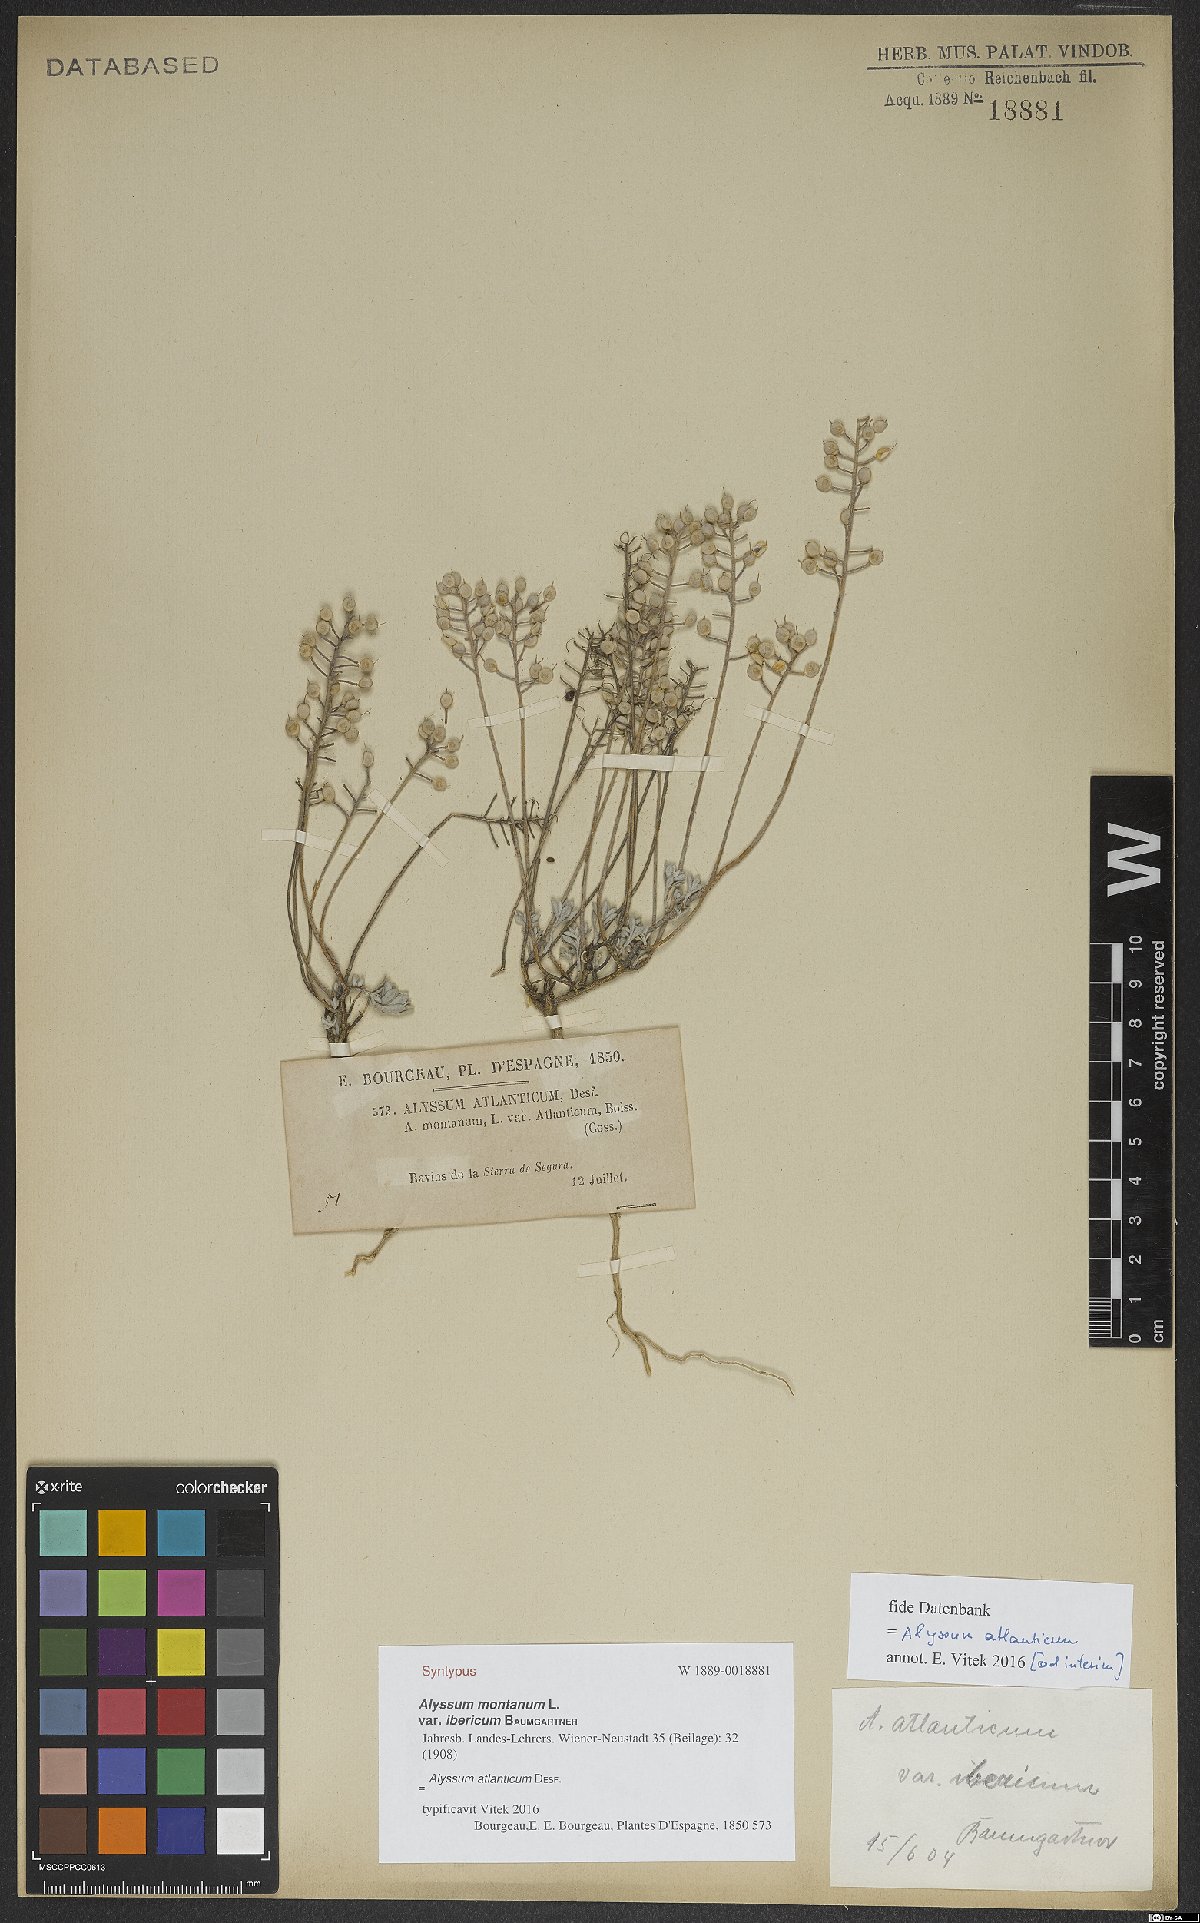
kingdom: Plantae
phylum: Tracheophyta
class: Magnoliopsida
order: Brassicales
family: Brassicaceae
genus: Alyssum
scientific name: Alyssum atlanticum
